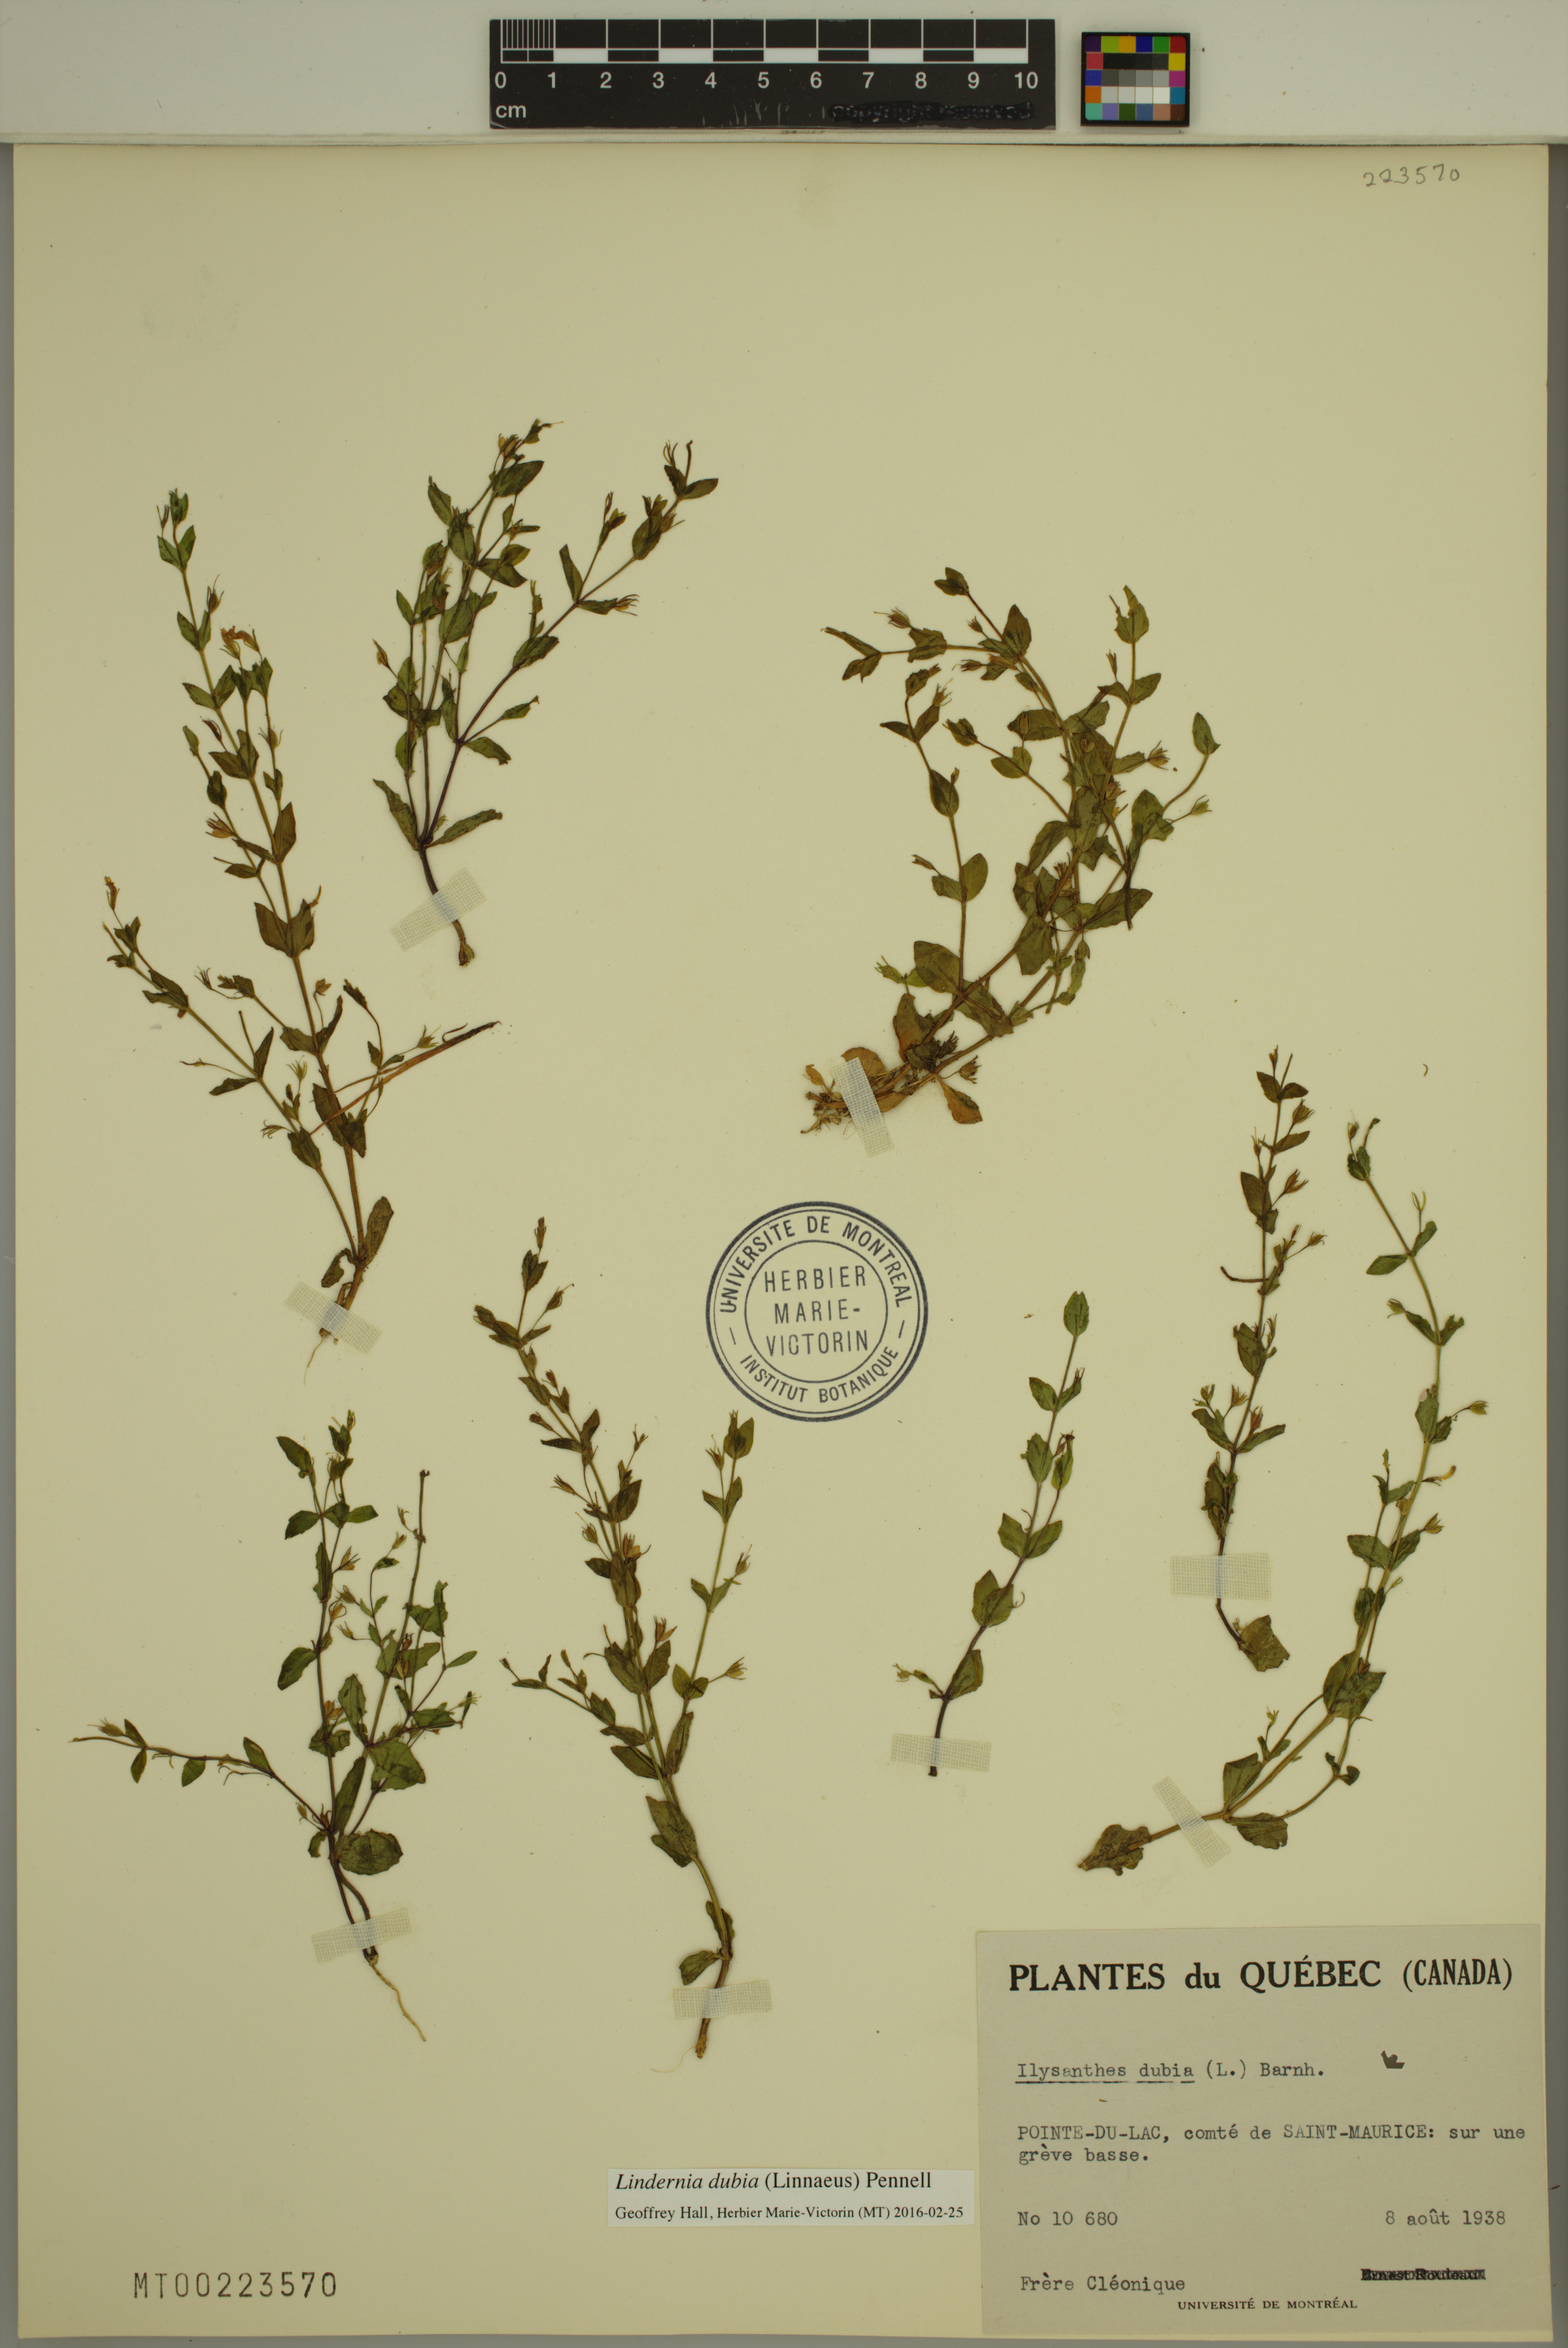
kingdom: Plantae
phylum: Tracheophyta
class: Magnoliopsida
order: Lamiales
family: Linderniaceae
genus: Lindernia
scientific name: Lindernia dubia
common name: Annual false pimpernel
